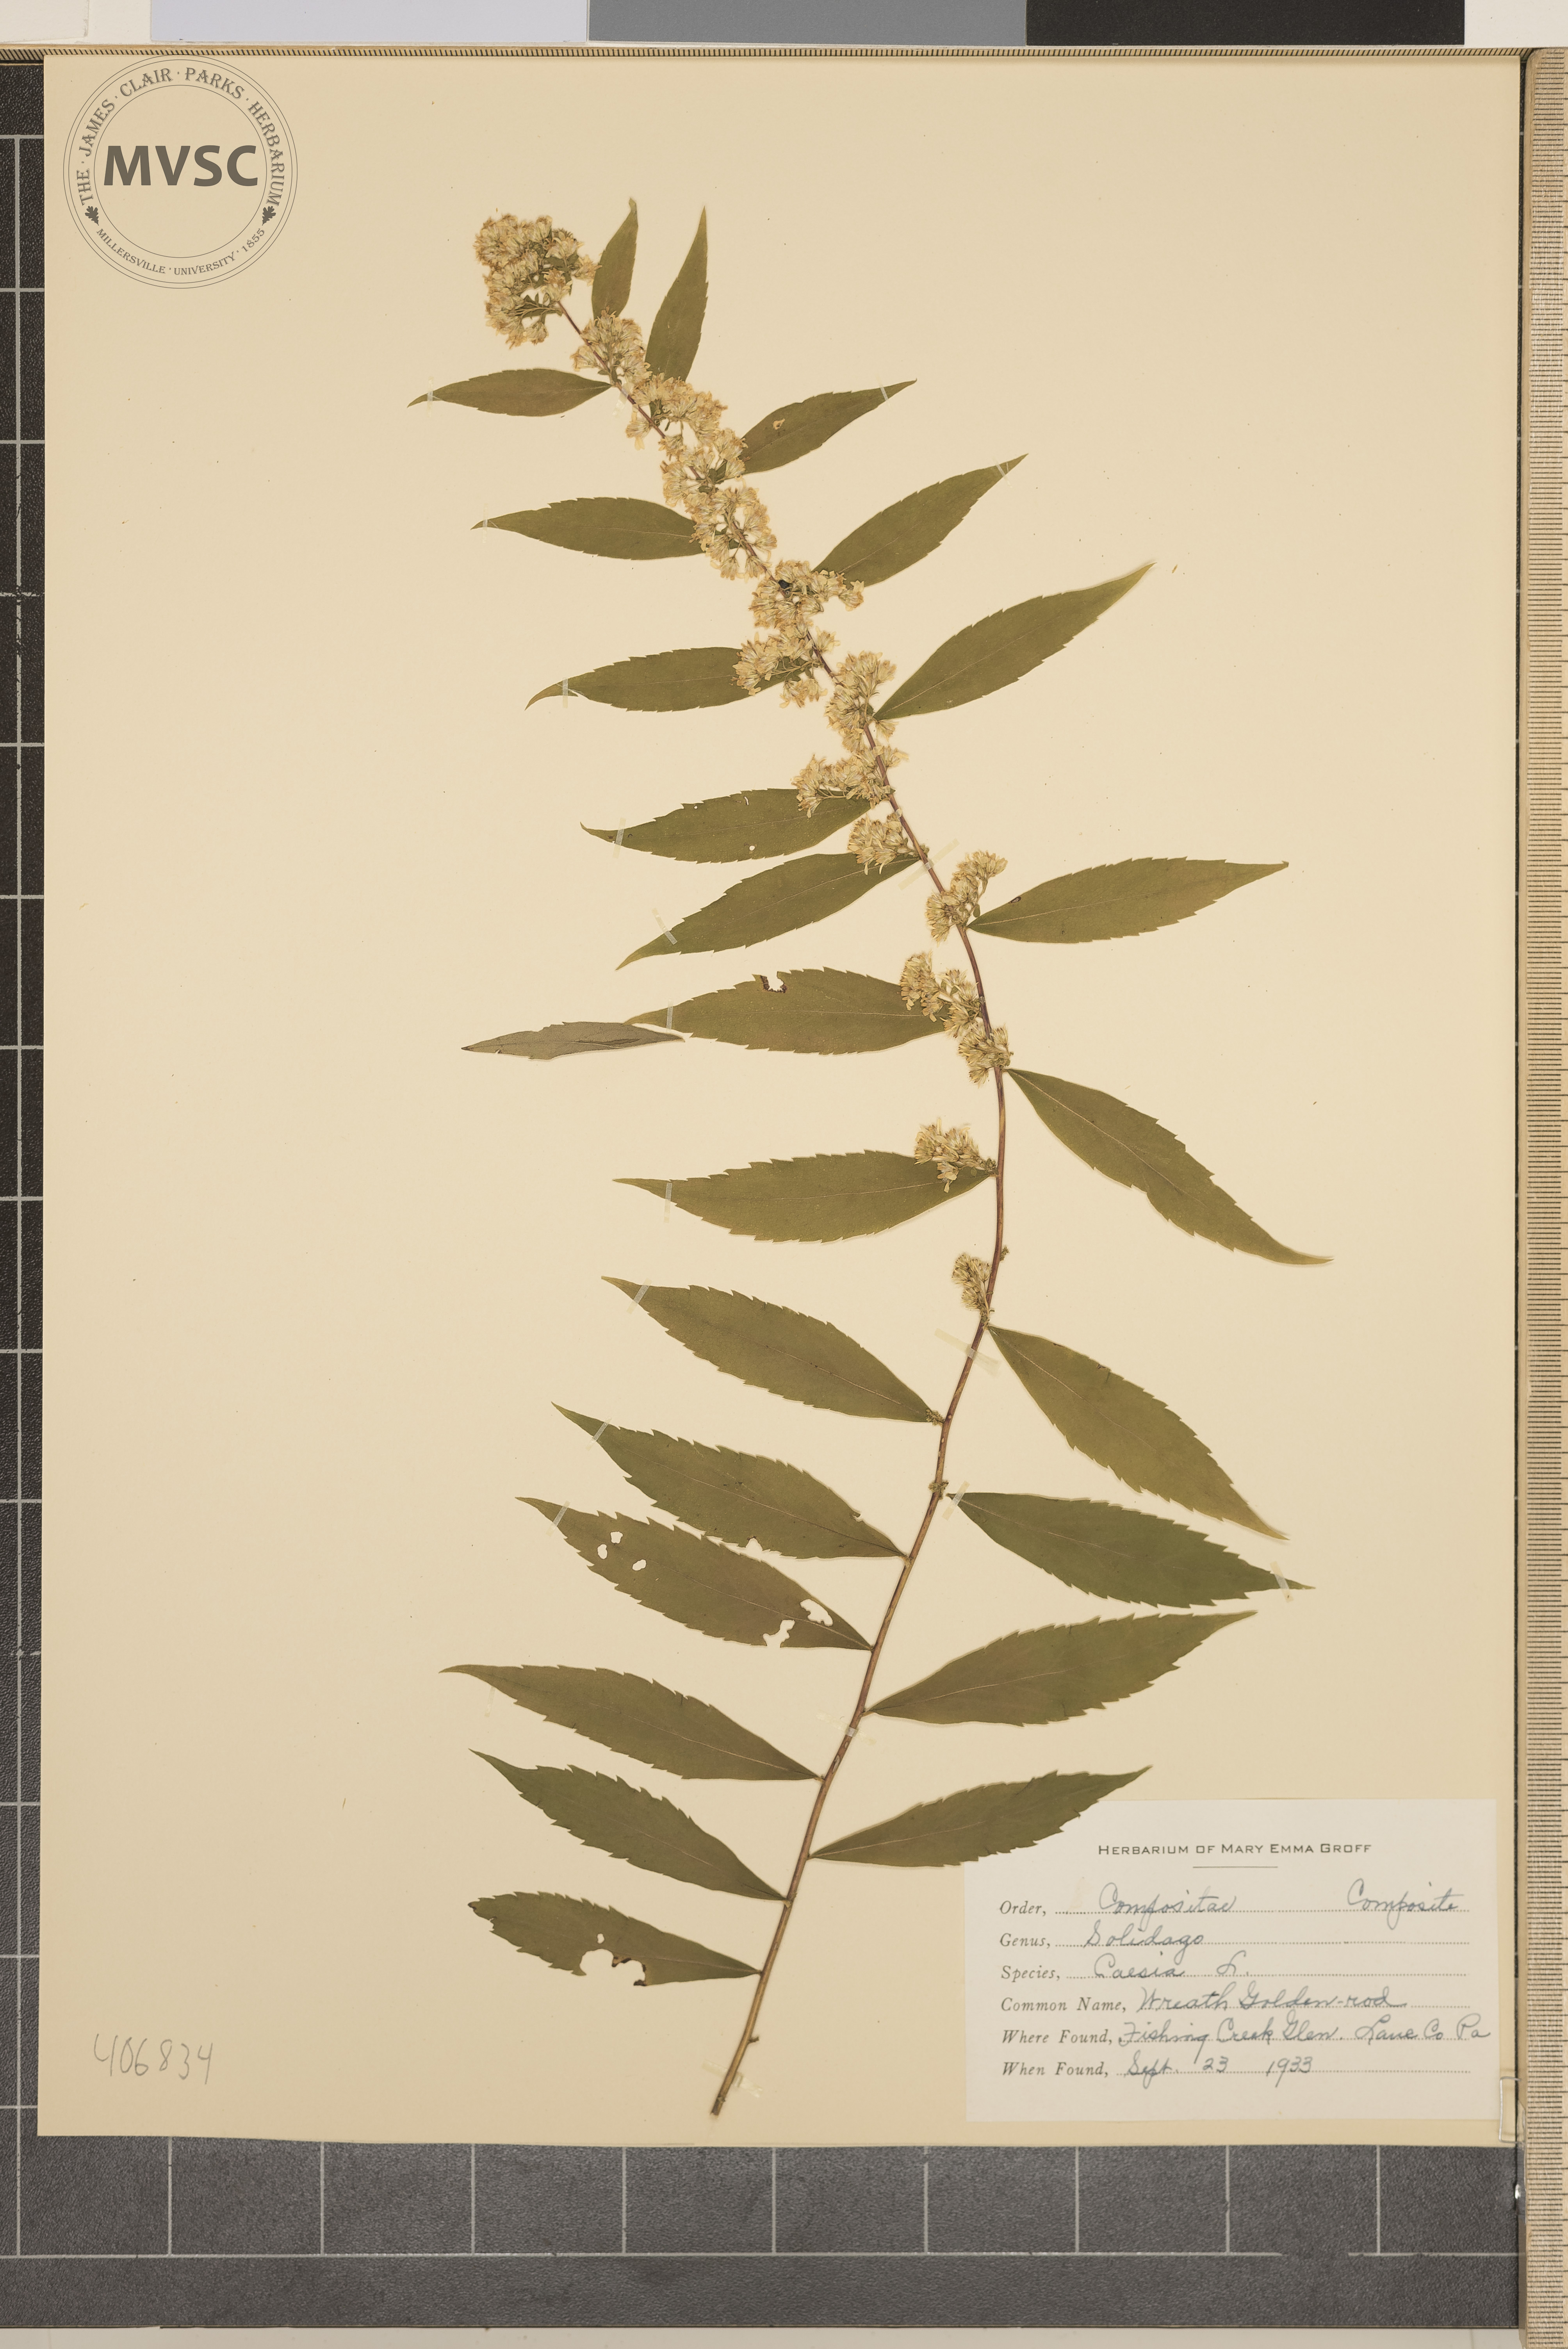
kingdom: Plantae
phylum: Tracheophyta
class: Magnoliopsida
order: Asterales
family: Asteraceae
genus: Solidago
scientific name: Solidago caesia
